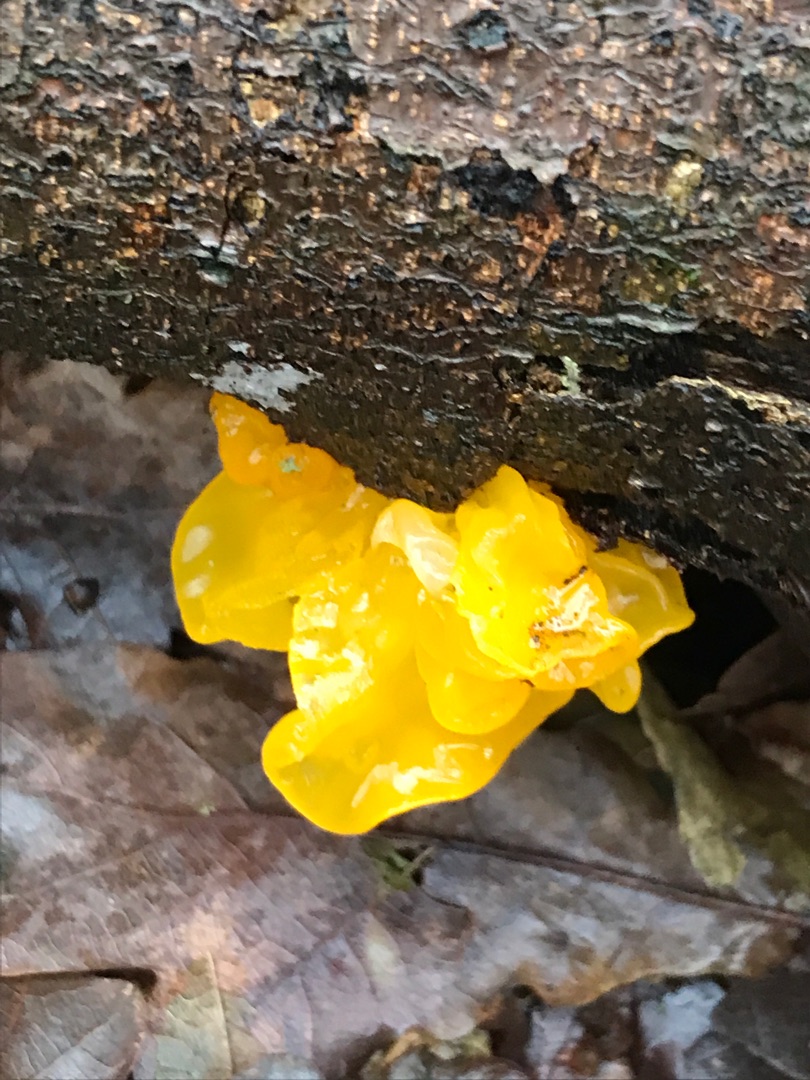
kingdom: Fungi
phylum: Basidiomycota
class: Tremellomycetes
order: Tremellales
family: Tremellaceae
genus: Tremella
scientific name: Tremella mesenterica
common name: Gul bævresvamp
